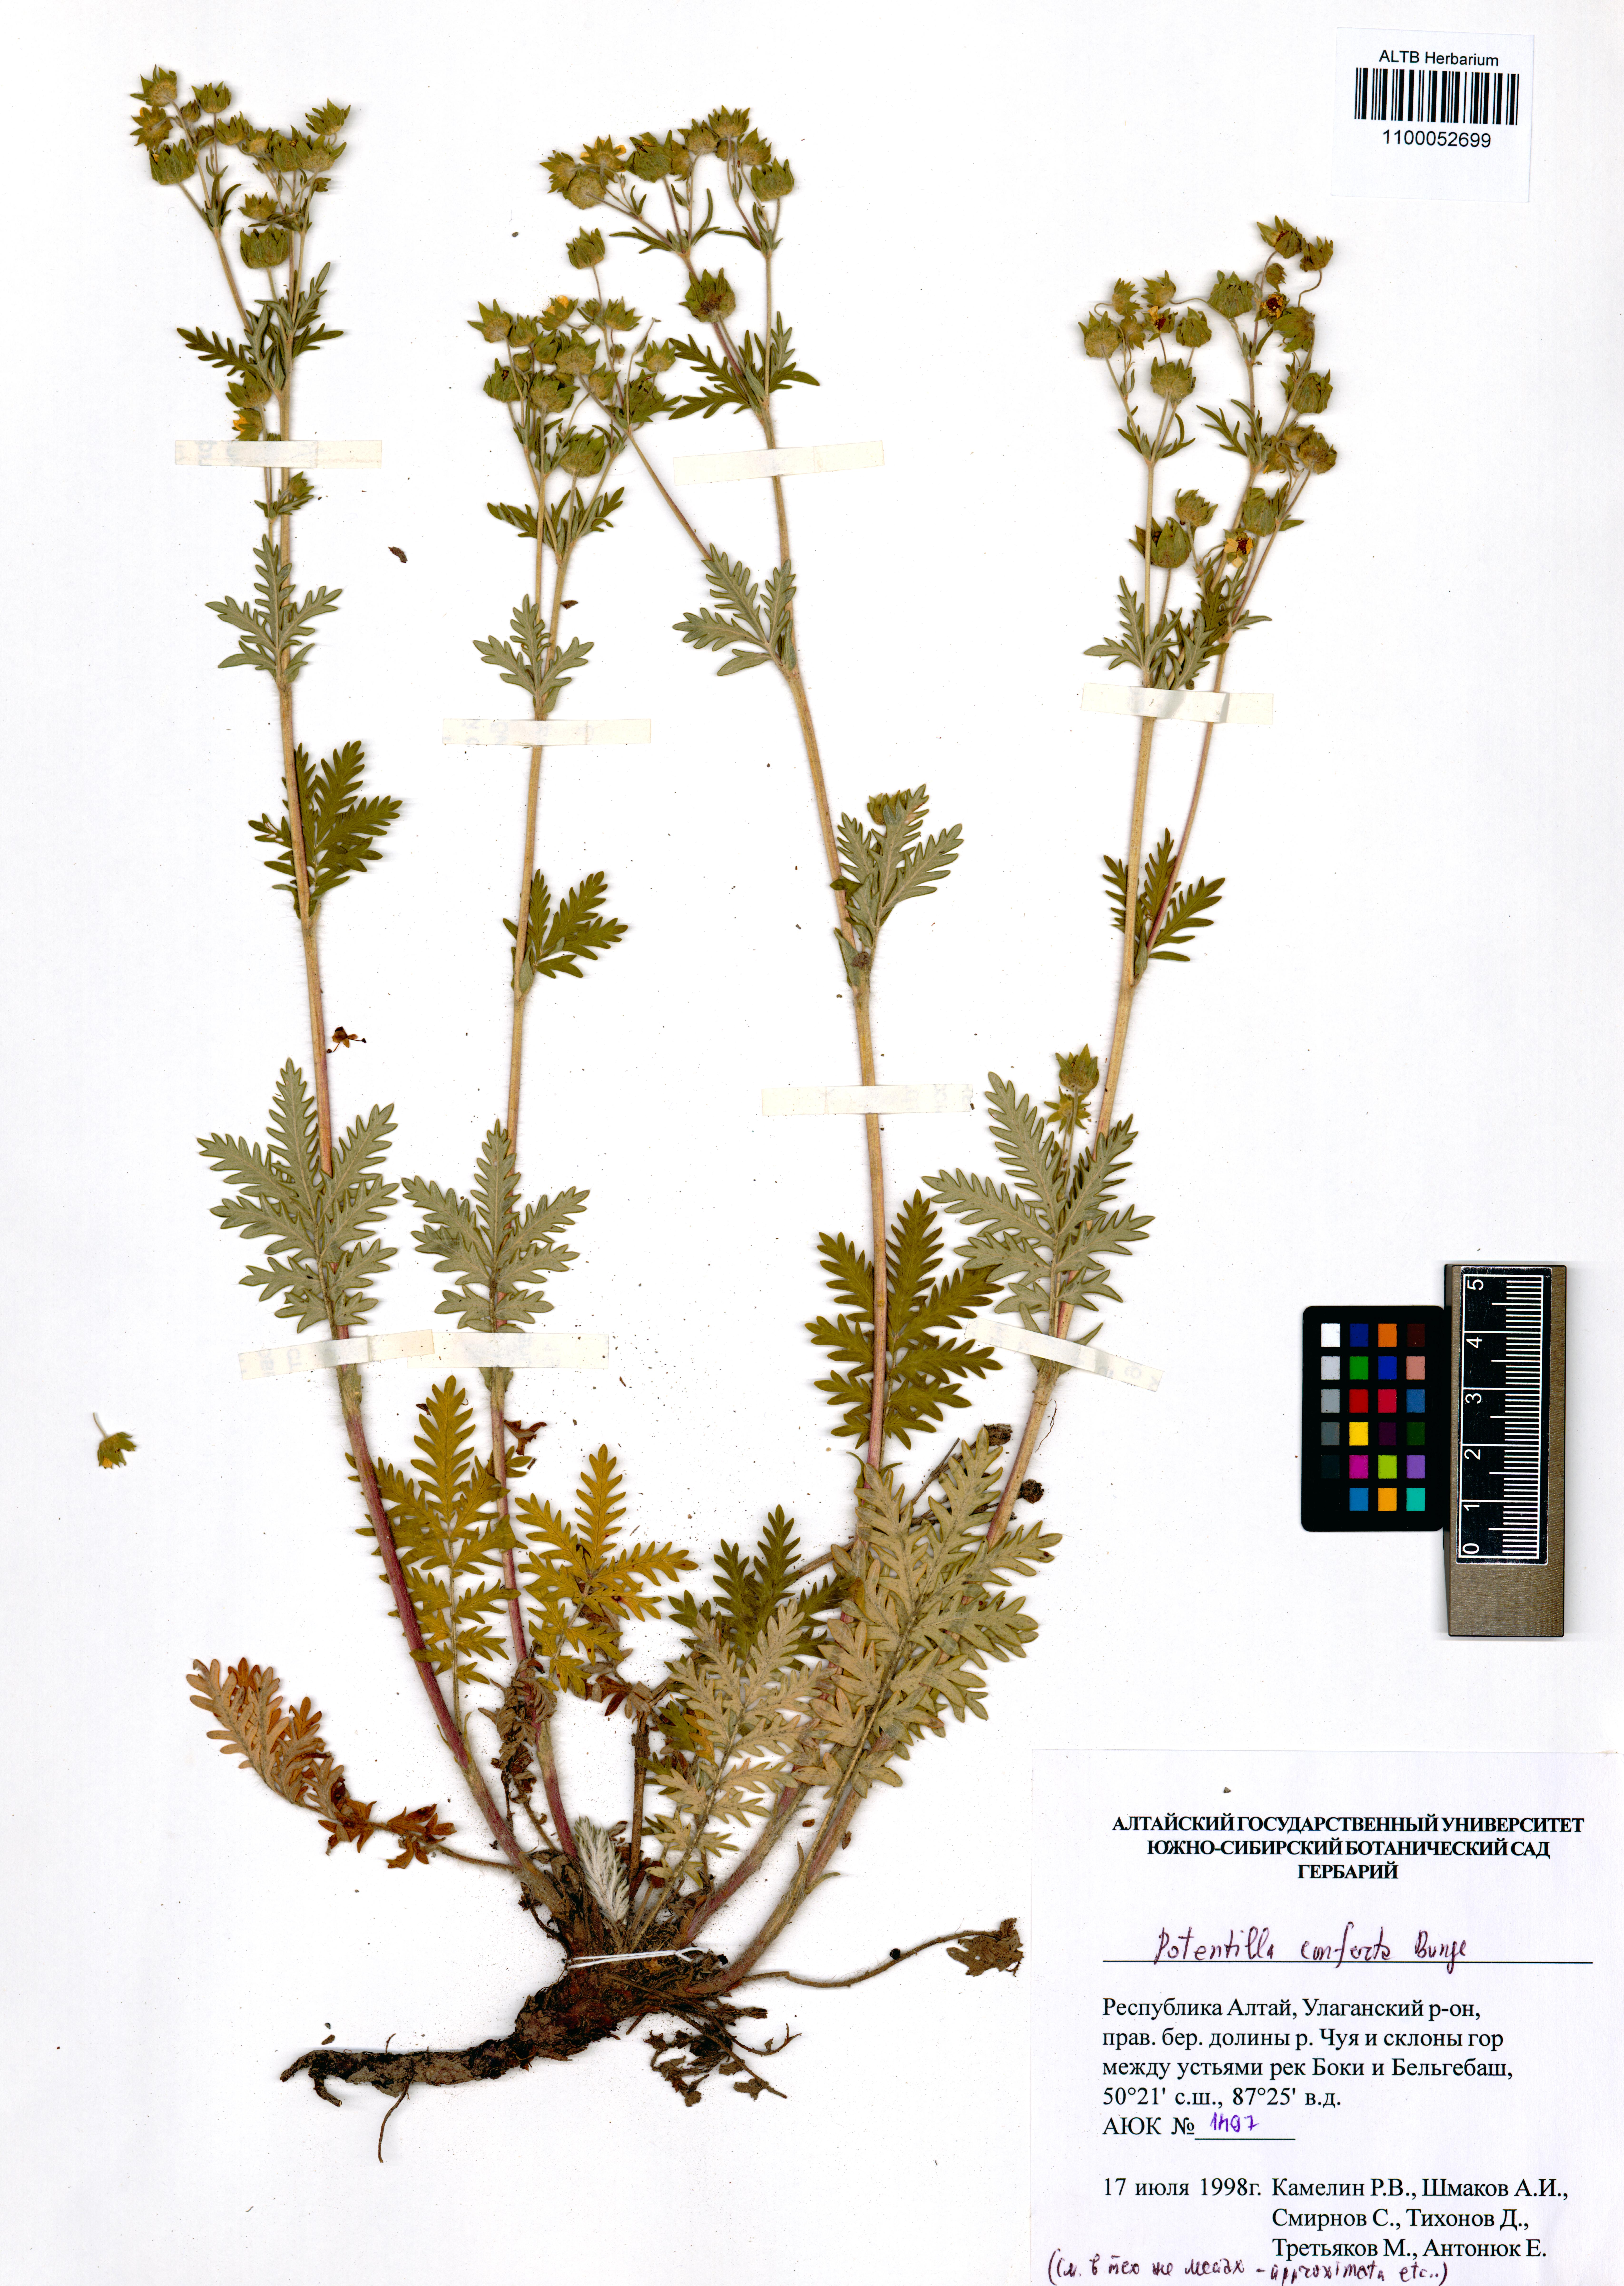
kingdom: Plantae
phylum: Tracheophyta
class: Magnoliopsida
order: Rosales
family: Rosaceae
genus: Potentilla
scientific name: Potentilla conferta
